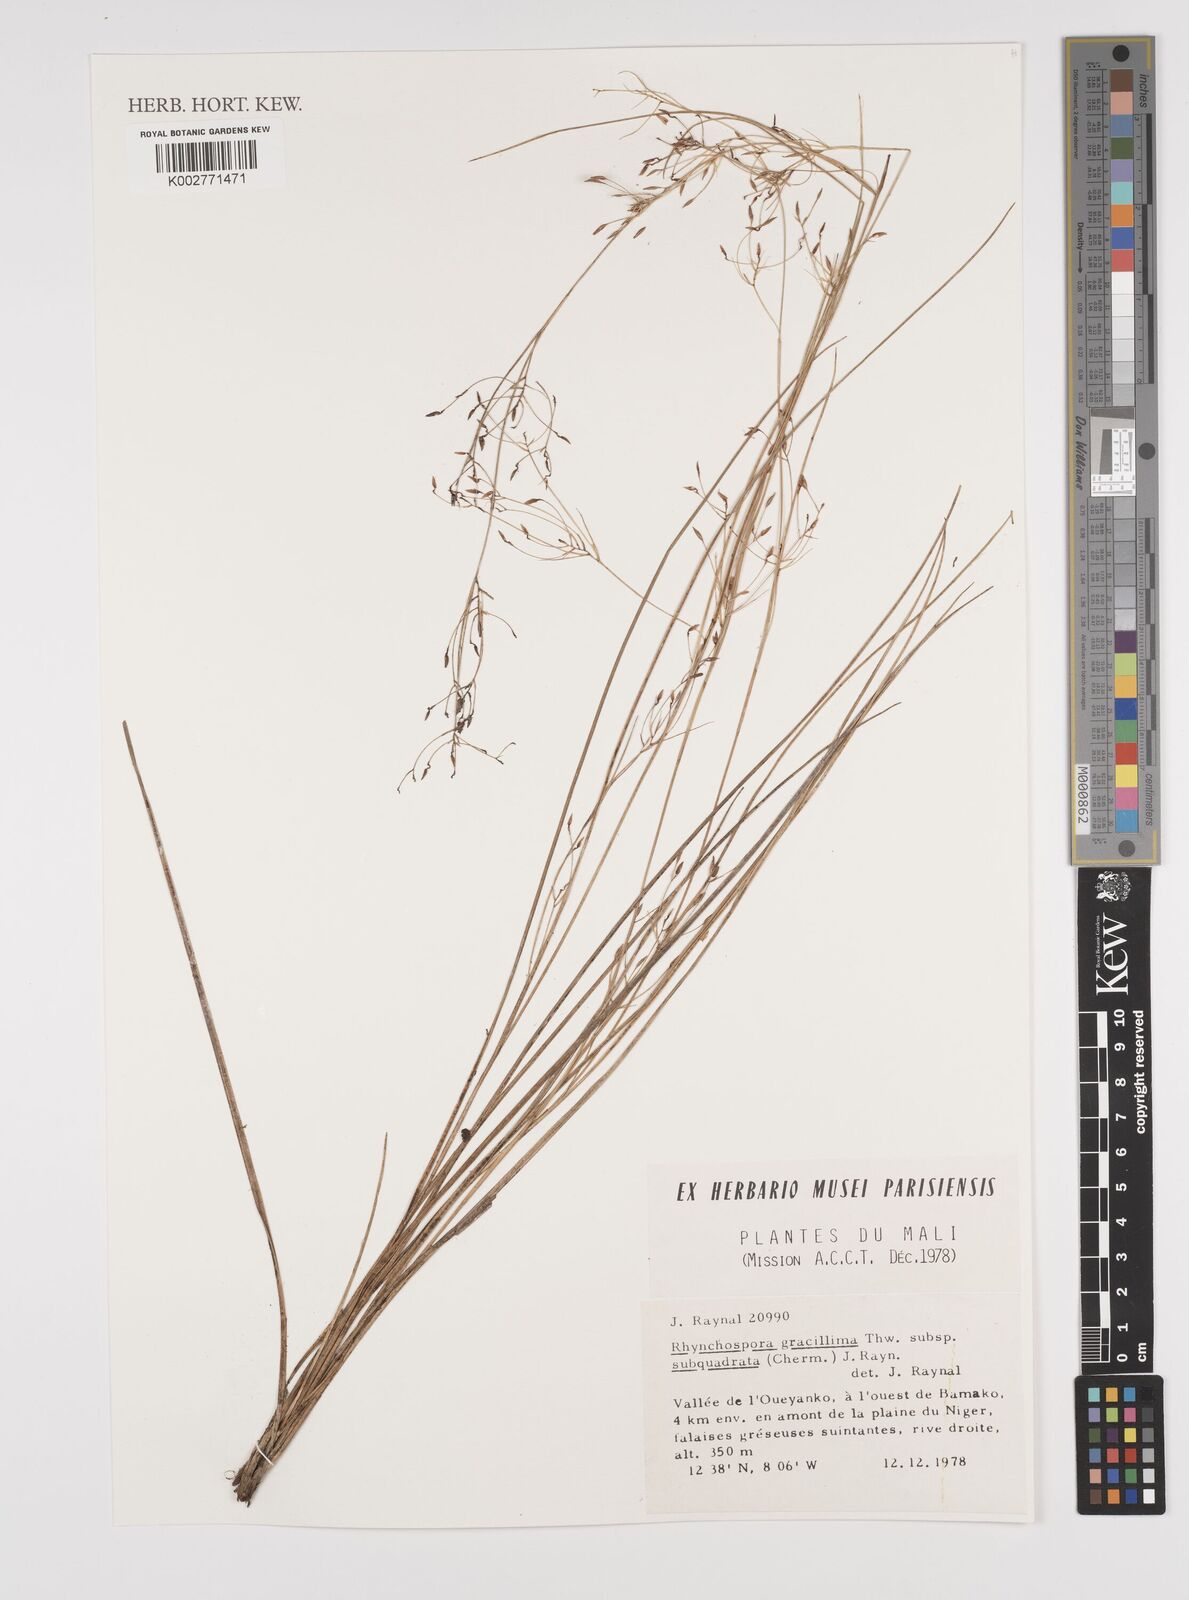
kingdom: Plantae
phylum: Tracheophyta
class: Liliopsida
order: Poales
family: Cyperaceae
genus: Rhynchospora
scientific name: Rhynchospora gracillima
